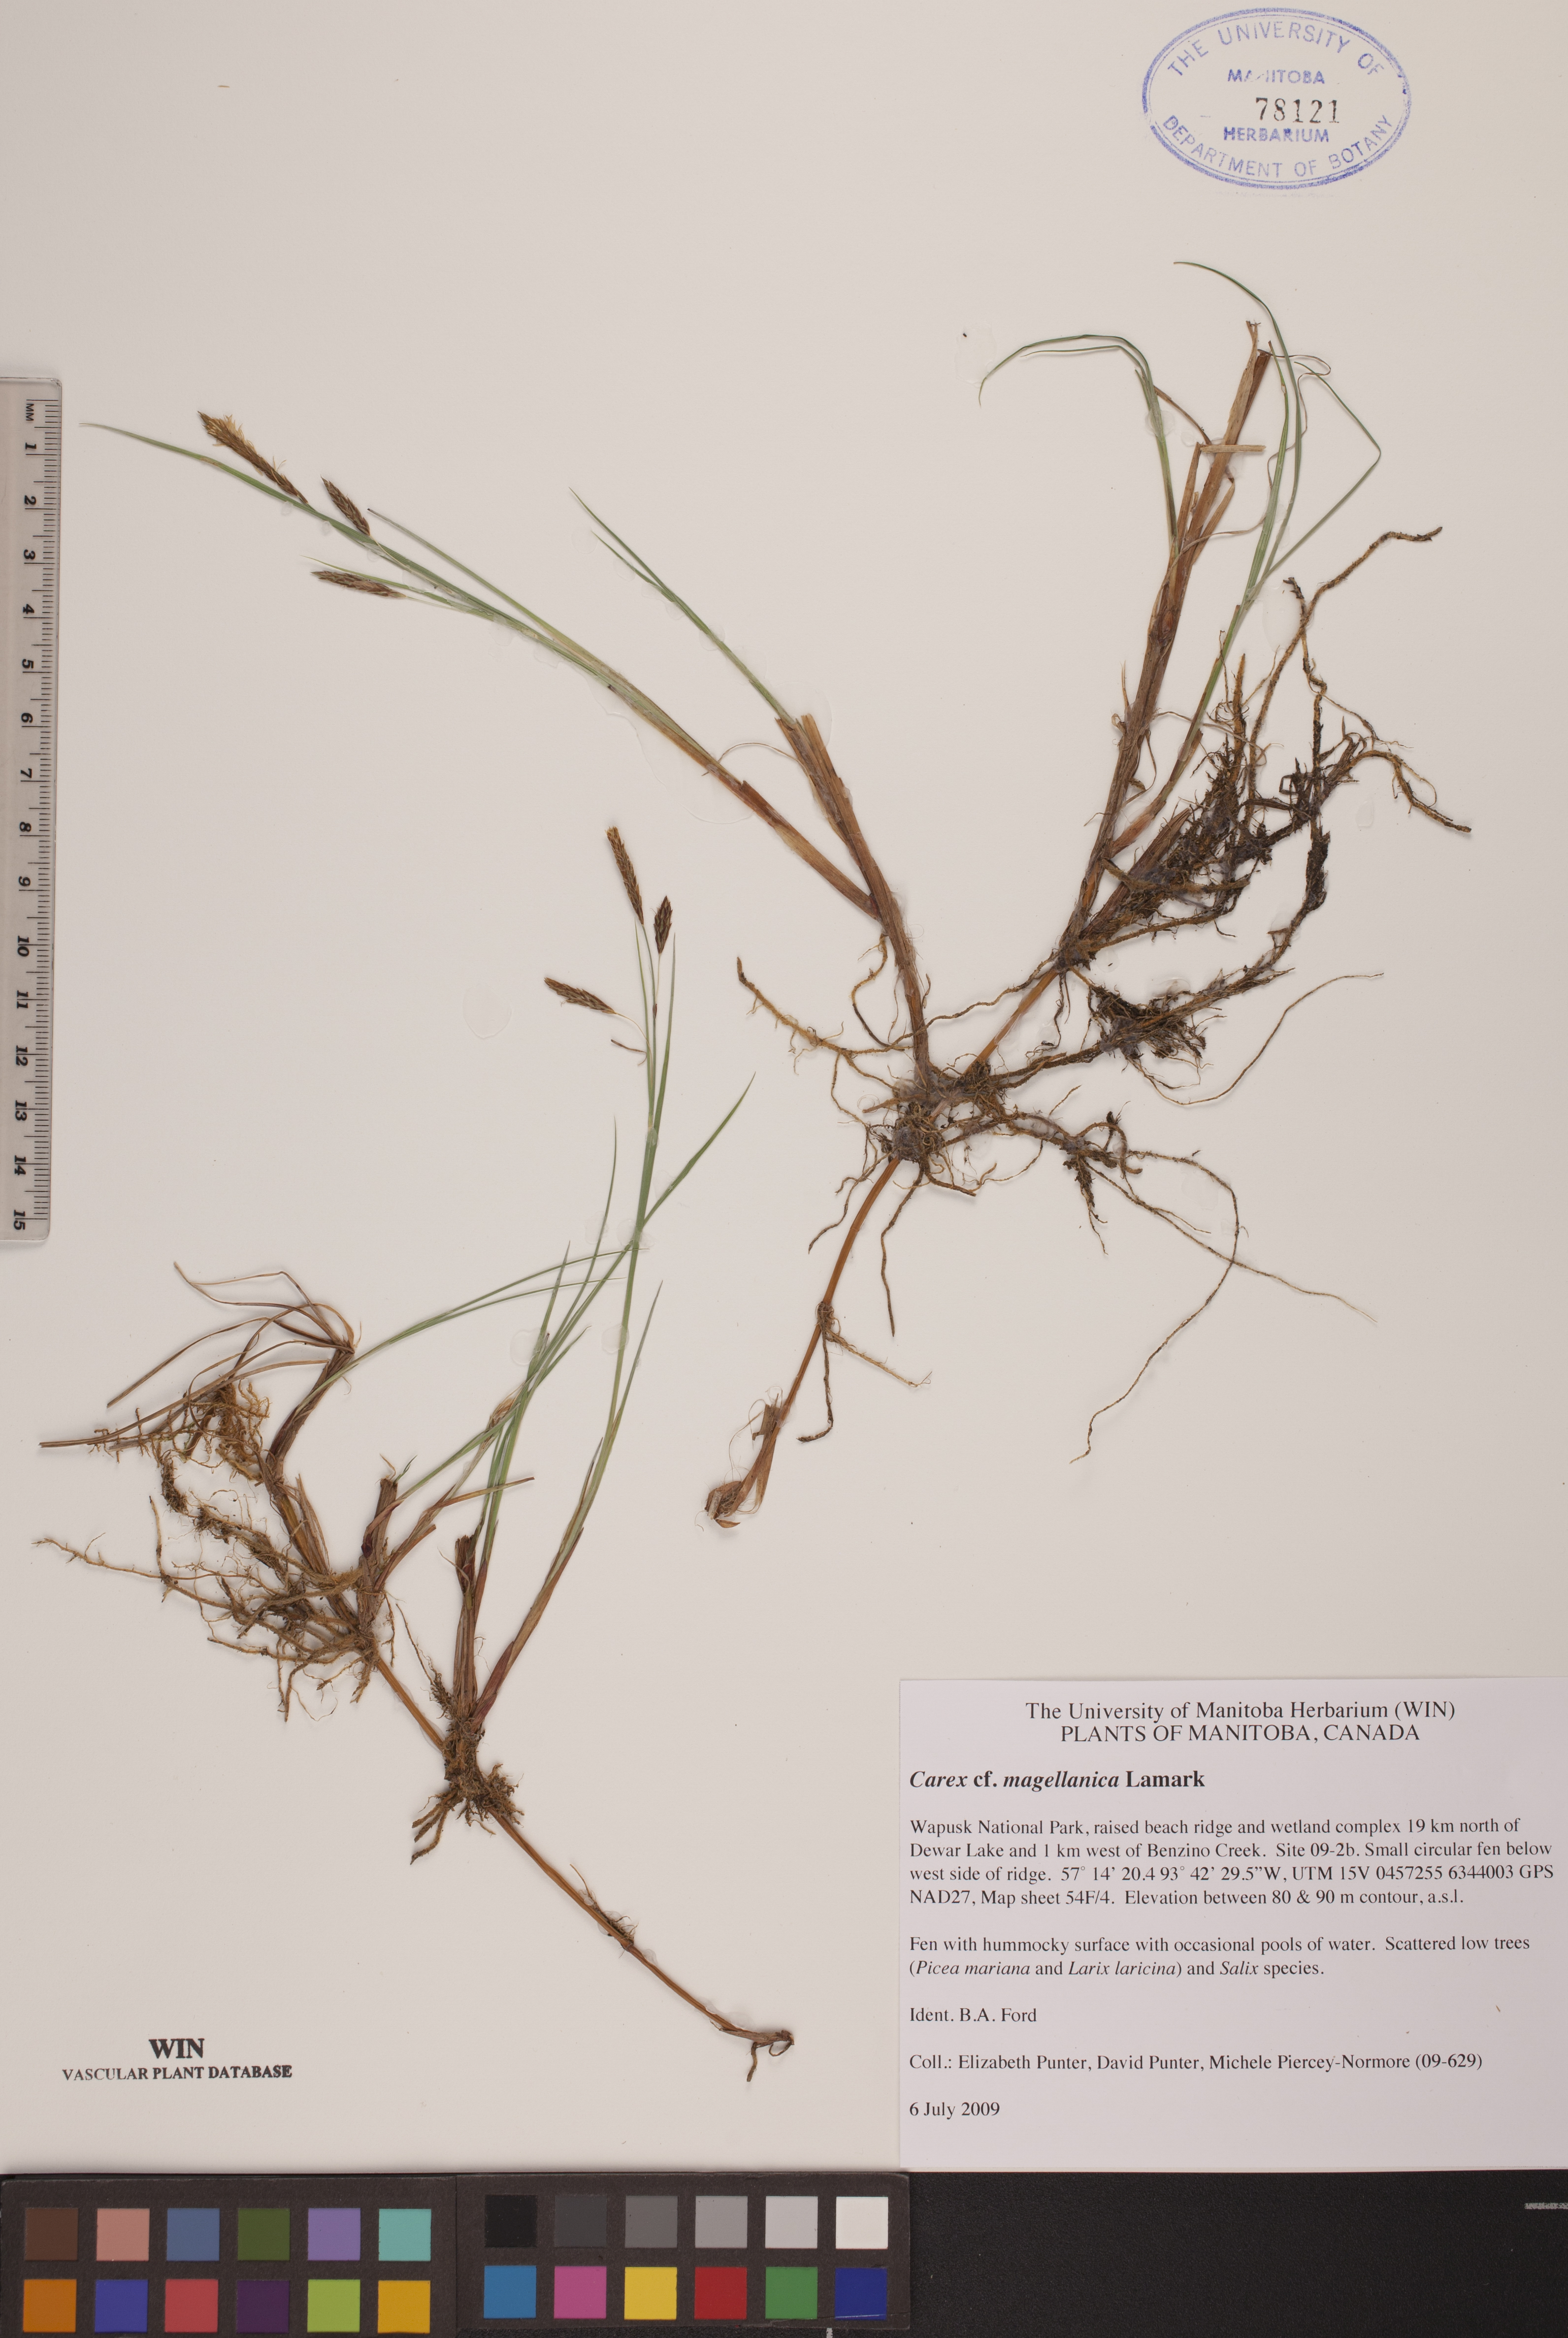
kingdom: Plantae
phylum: Tracheophyta
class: Liliopsida
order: Poales
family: Cyperaceae
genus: Carex
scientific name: Carex magellanica
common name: Bog sedge
